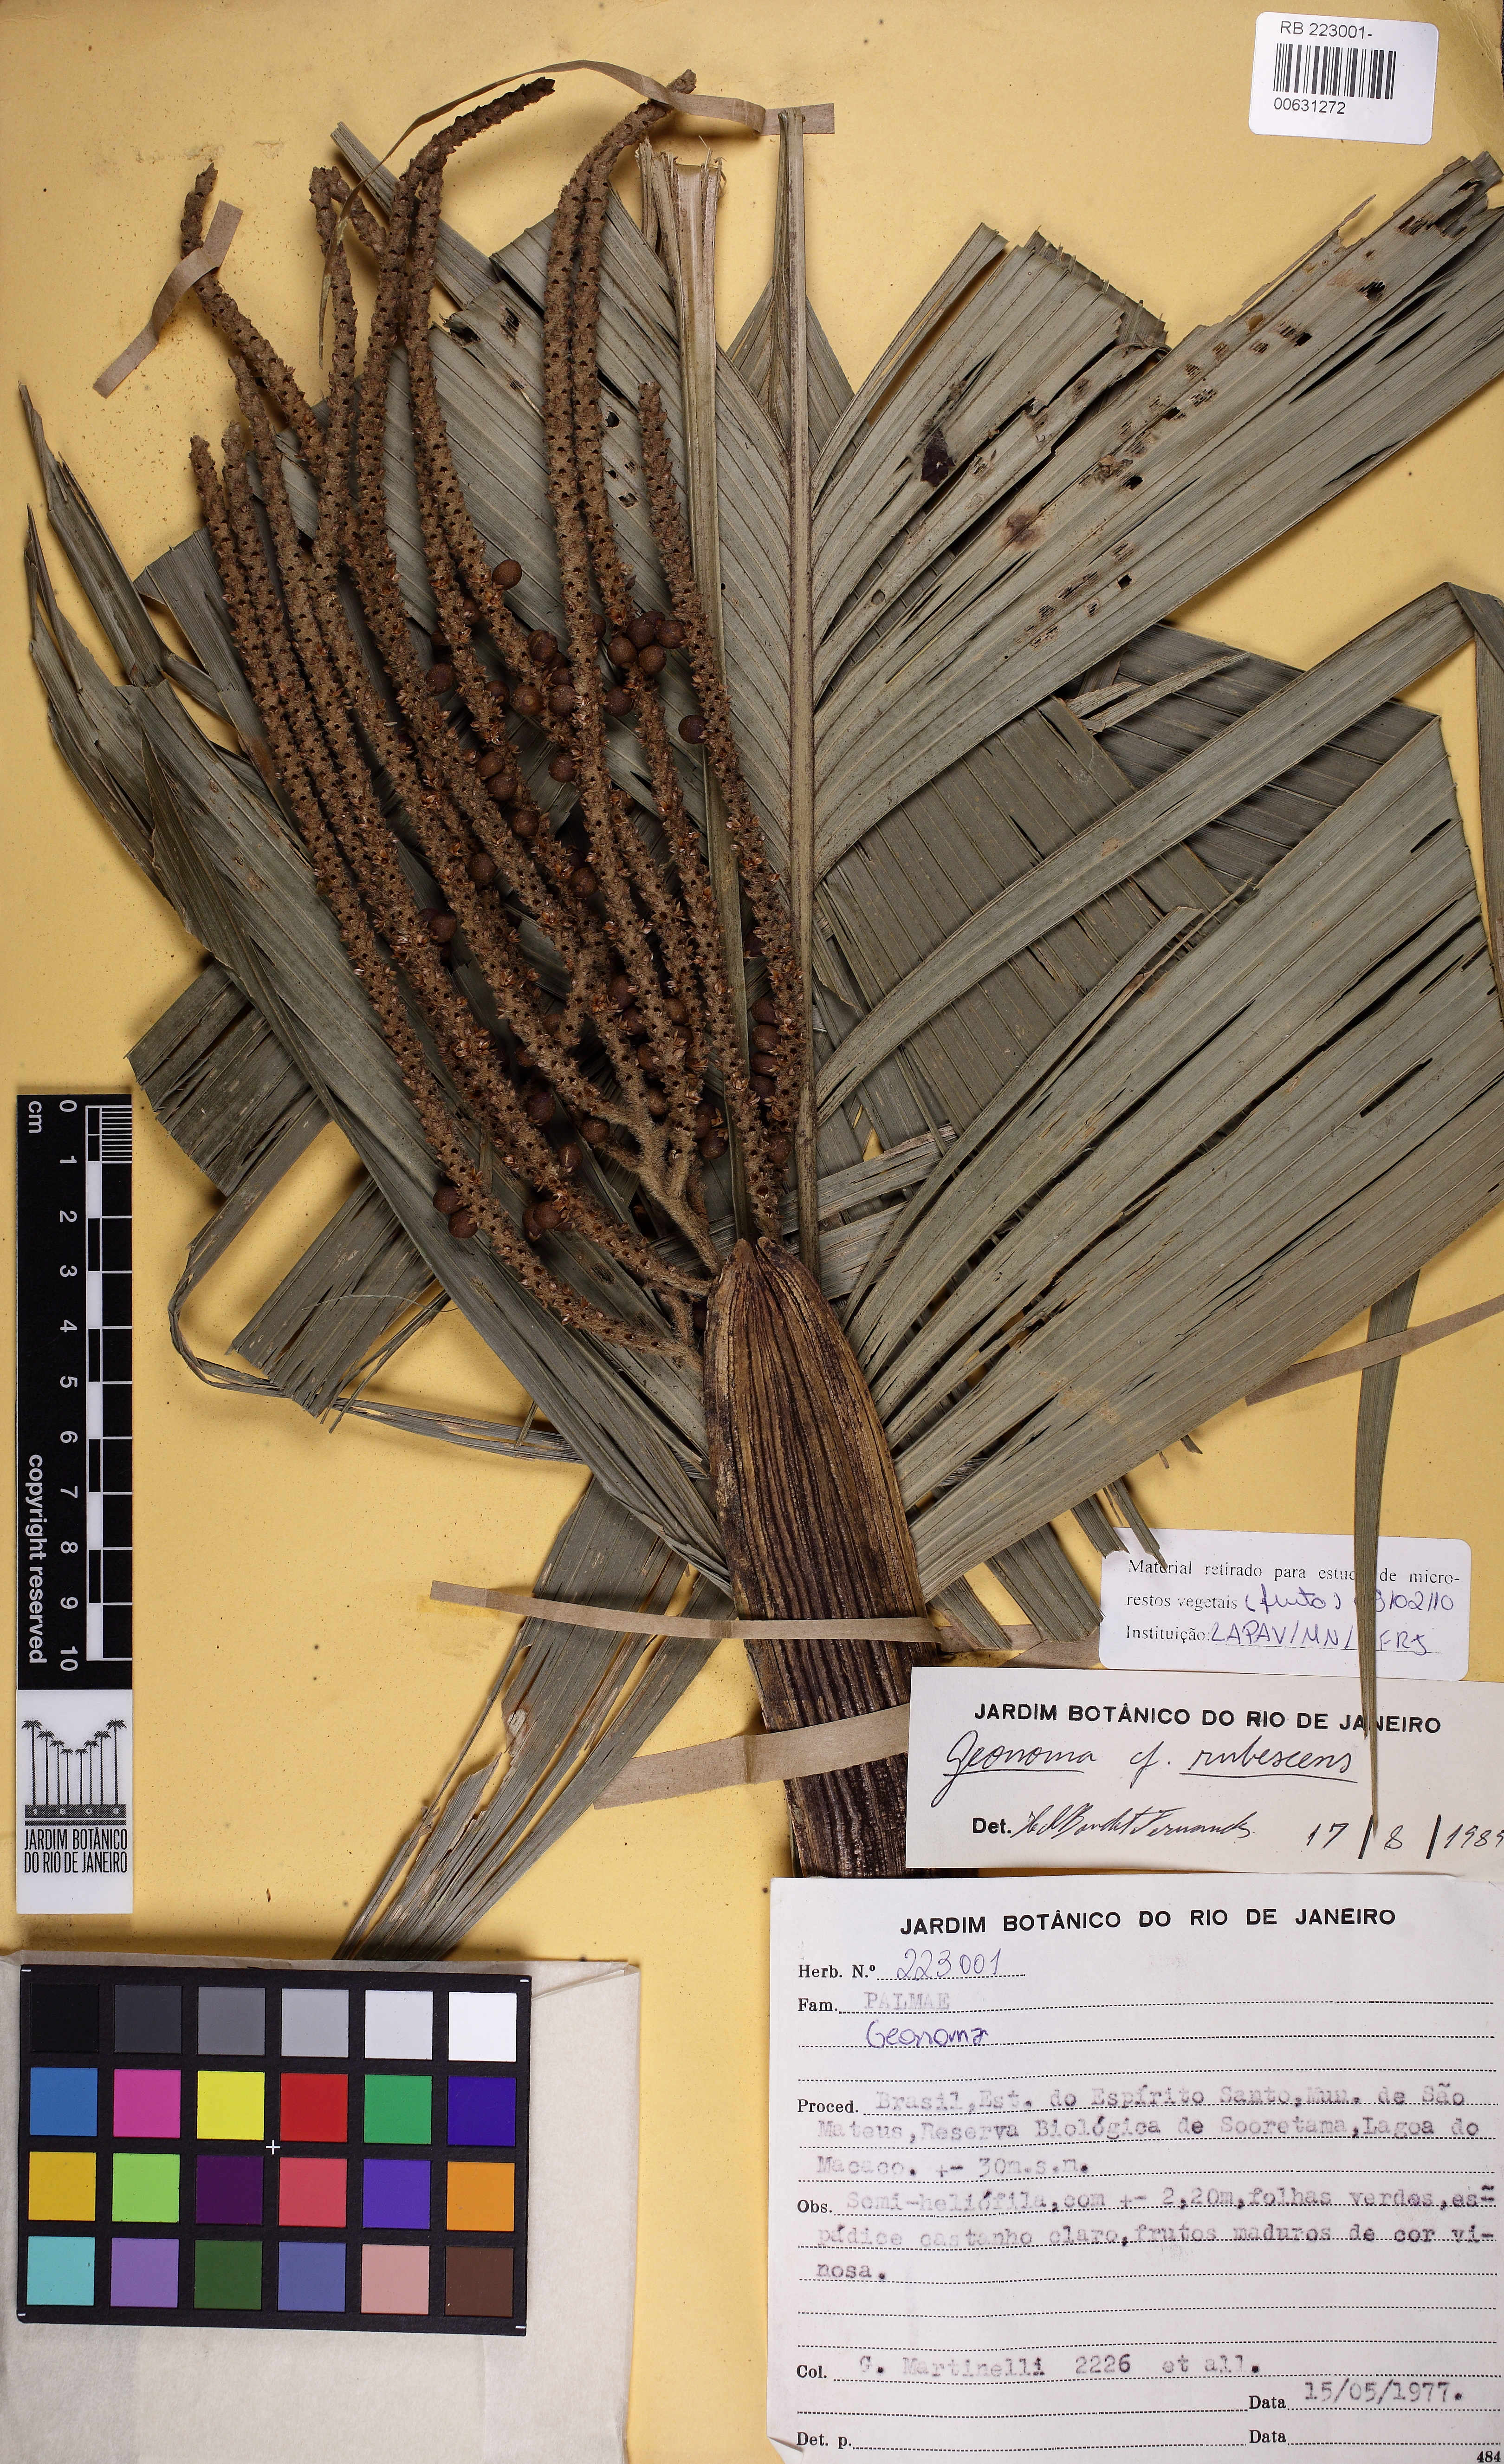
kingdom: Plantae
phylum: Tracheophyta
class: Liliopsida
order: Arecales
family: Arecaceae
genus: Geonoma
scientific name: Geonoma rubescens
